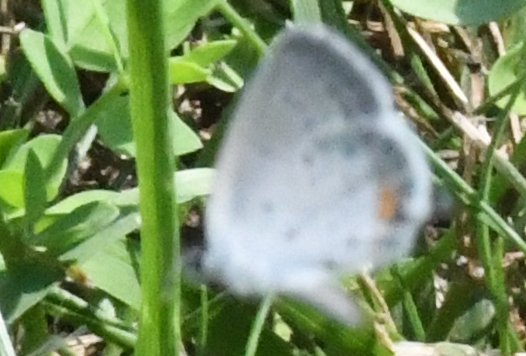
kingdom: Animalia
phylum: Arthropoda
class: Insecta
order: Lepidoptera
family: Lycaenidae
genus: Elkalyce
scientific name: Elkalyce comyntas
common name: Eastern Tailed-Blue
